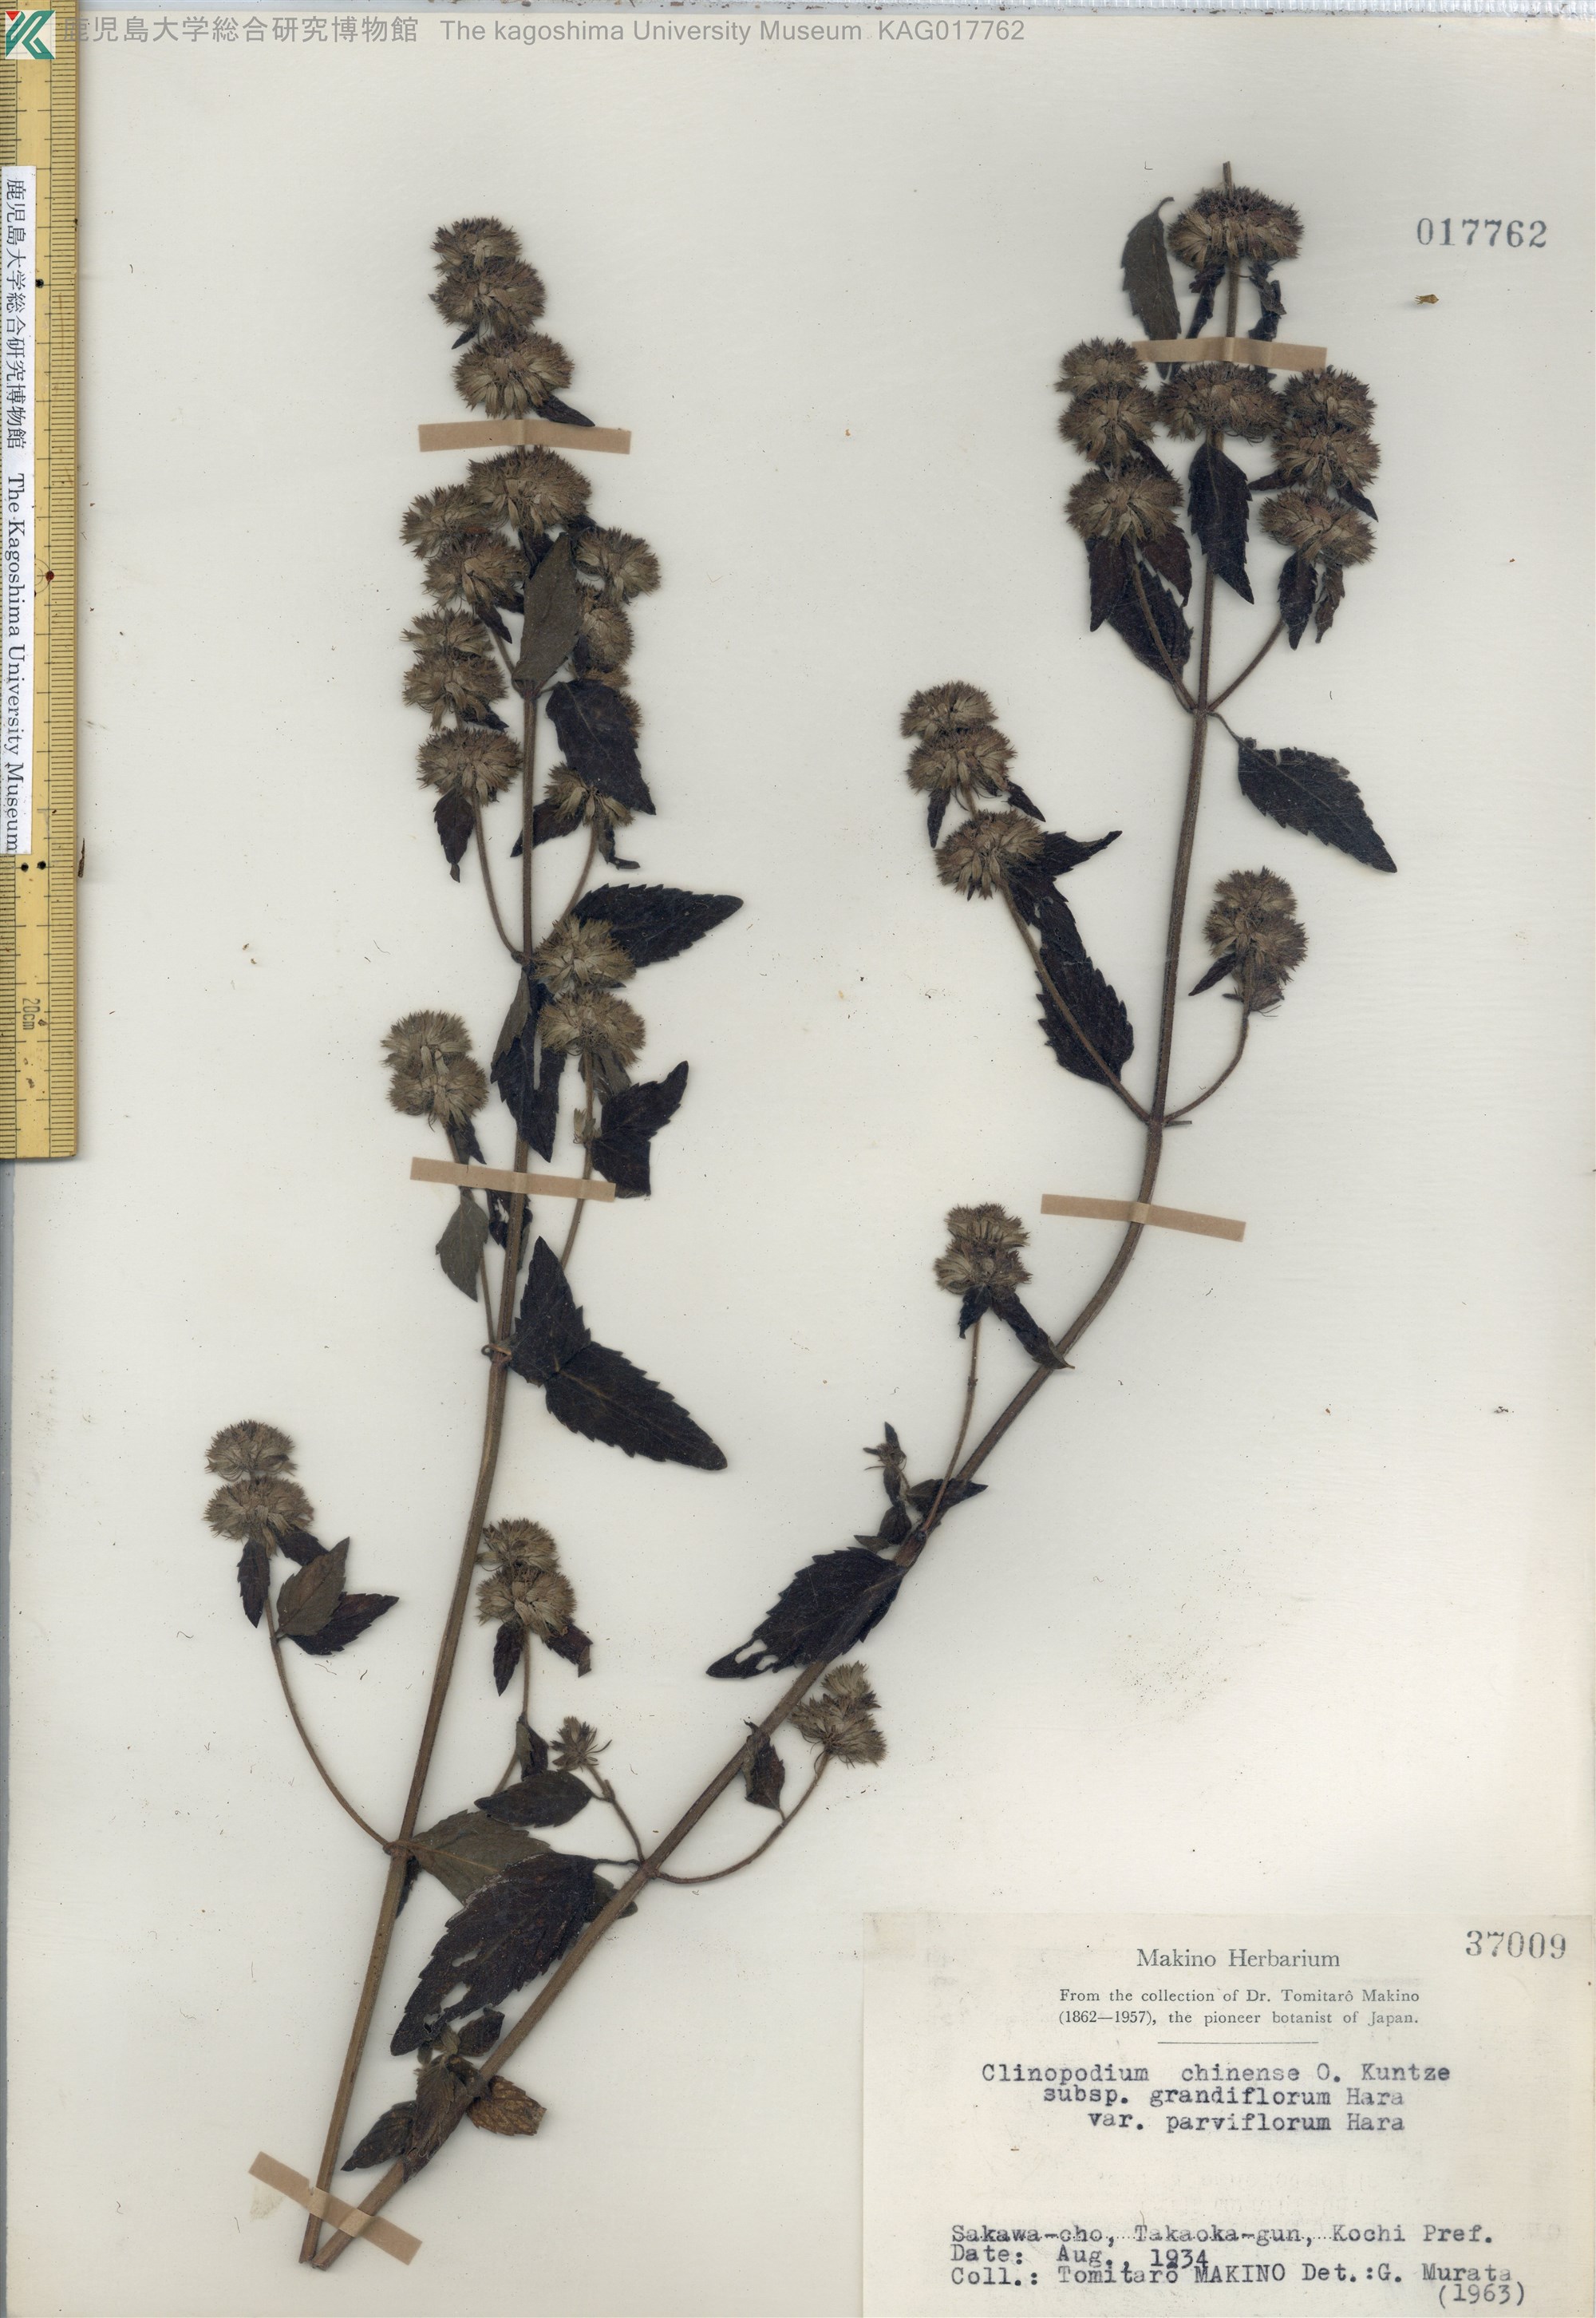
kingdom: Plantae
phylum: Tracheophyta
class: Magnoliopsida
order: Lamiales
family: Lamiaceae
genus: Clinopodium
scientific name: Clinopodium chinense
